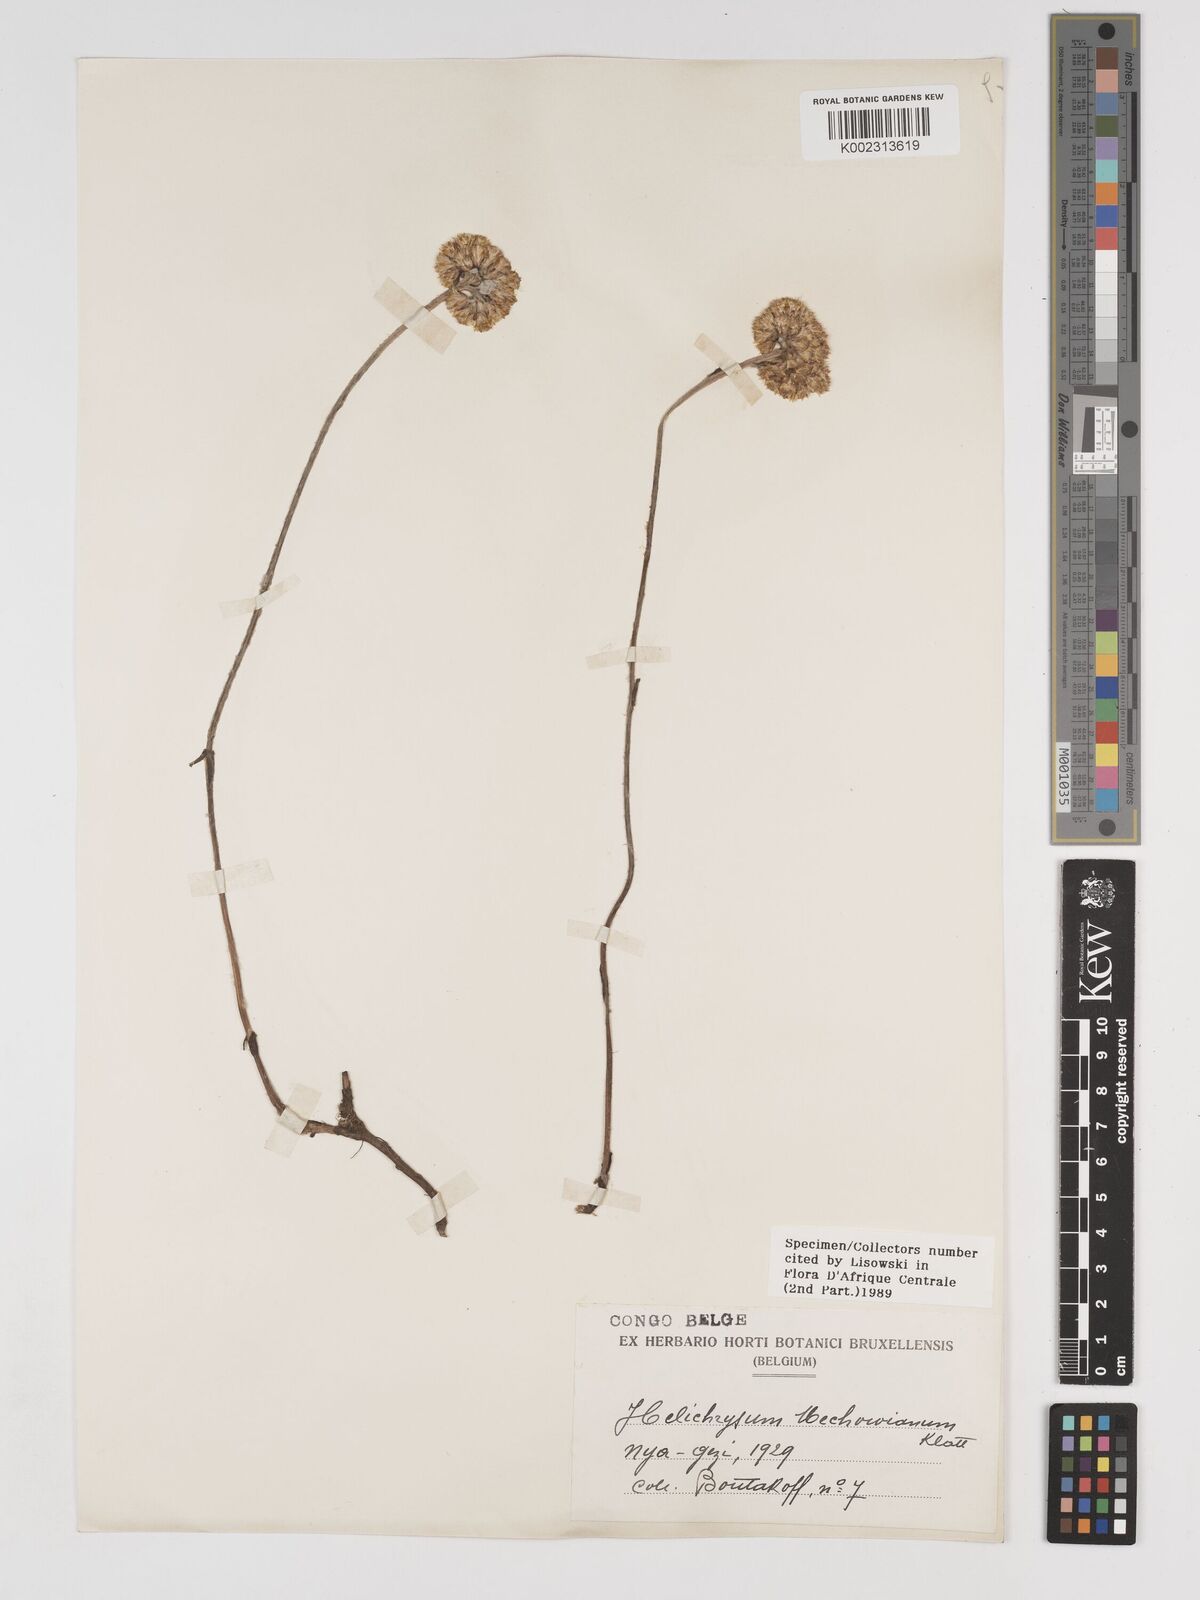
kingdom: Plantae
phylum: Tracheophyta
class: Magnoliopsida
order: Asterales
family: Asteraceae
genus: Helichrysum
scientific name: Helichrysum mechowianum
